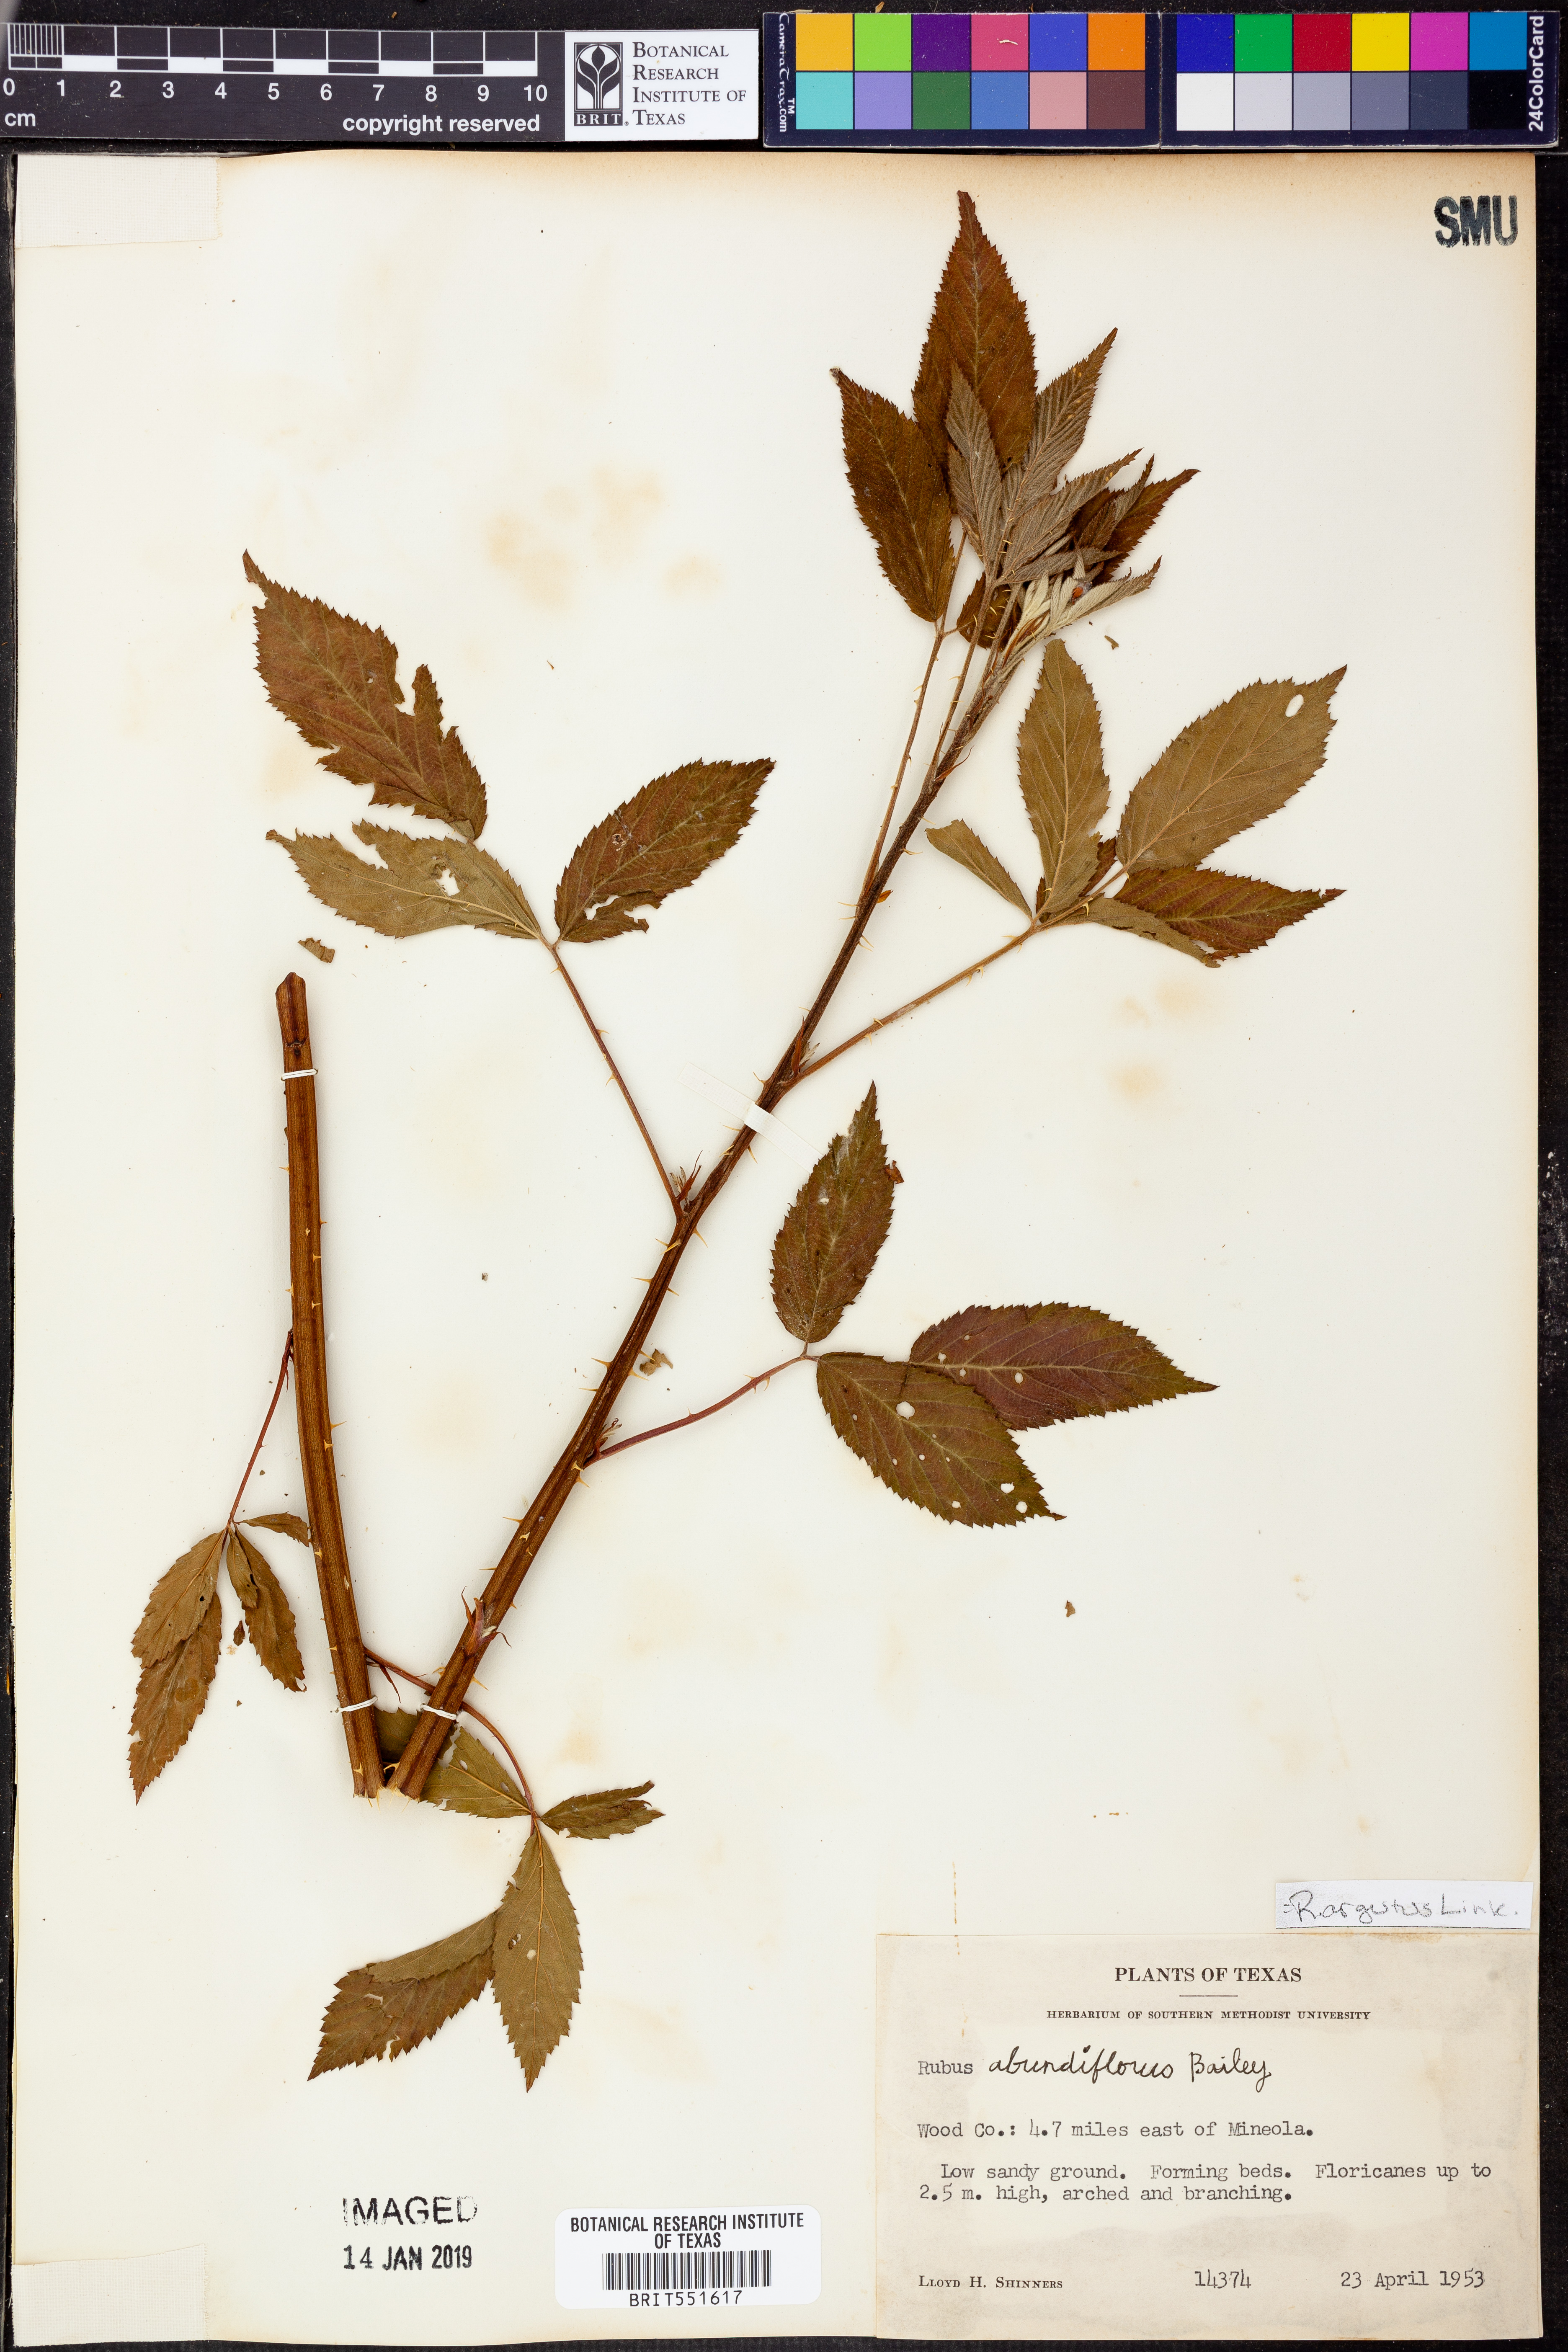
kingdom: Plantae
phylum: Tracheophyta
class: Magnoliopsida
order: Rosales
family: Rosaceae
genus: Rubus
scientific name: Rubus argutus
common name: Sawtooth blackberry
